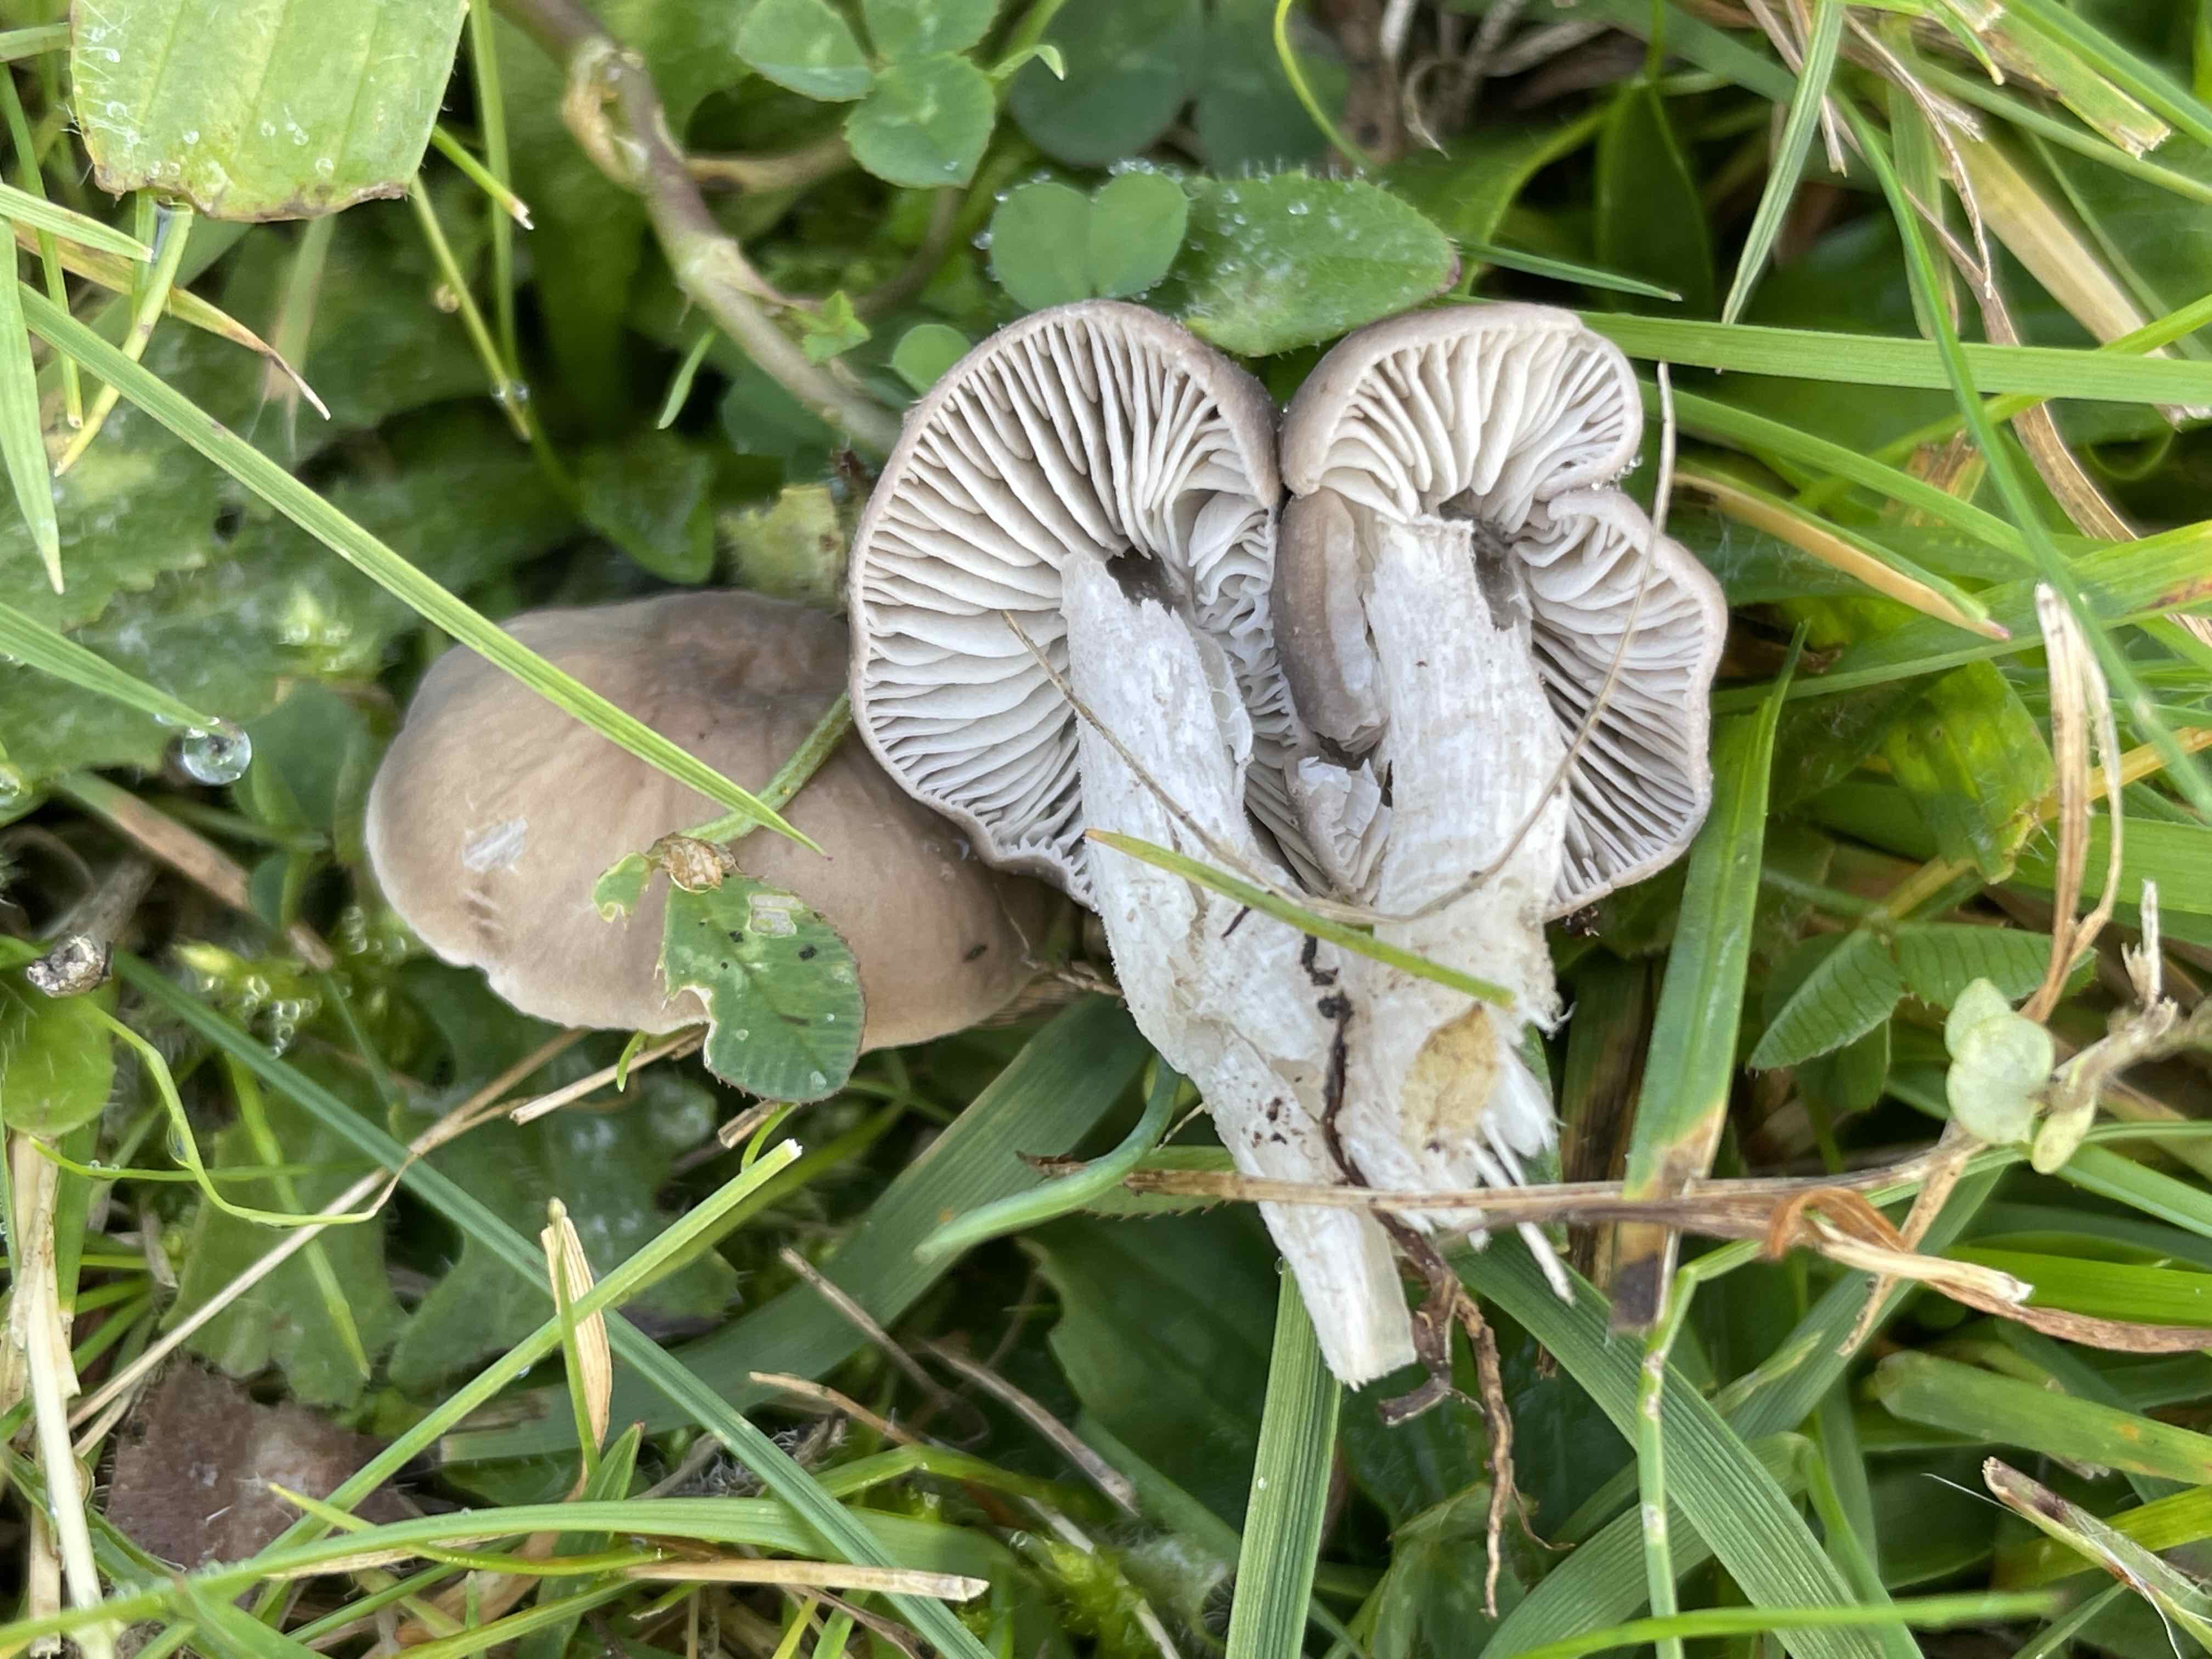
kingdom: Fungi
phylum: Basidiomycota
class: Agaricomycetes
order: Agaricales
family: Tricholomataceae
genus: Dermoloma
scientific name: Dermoloma cuneifolium
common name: eng-nonnehat
